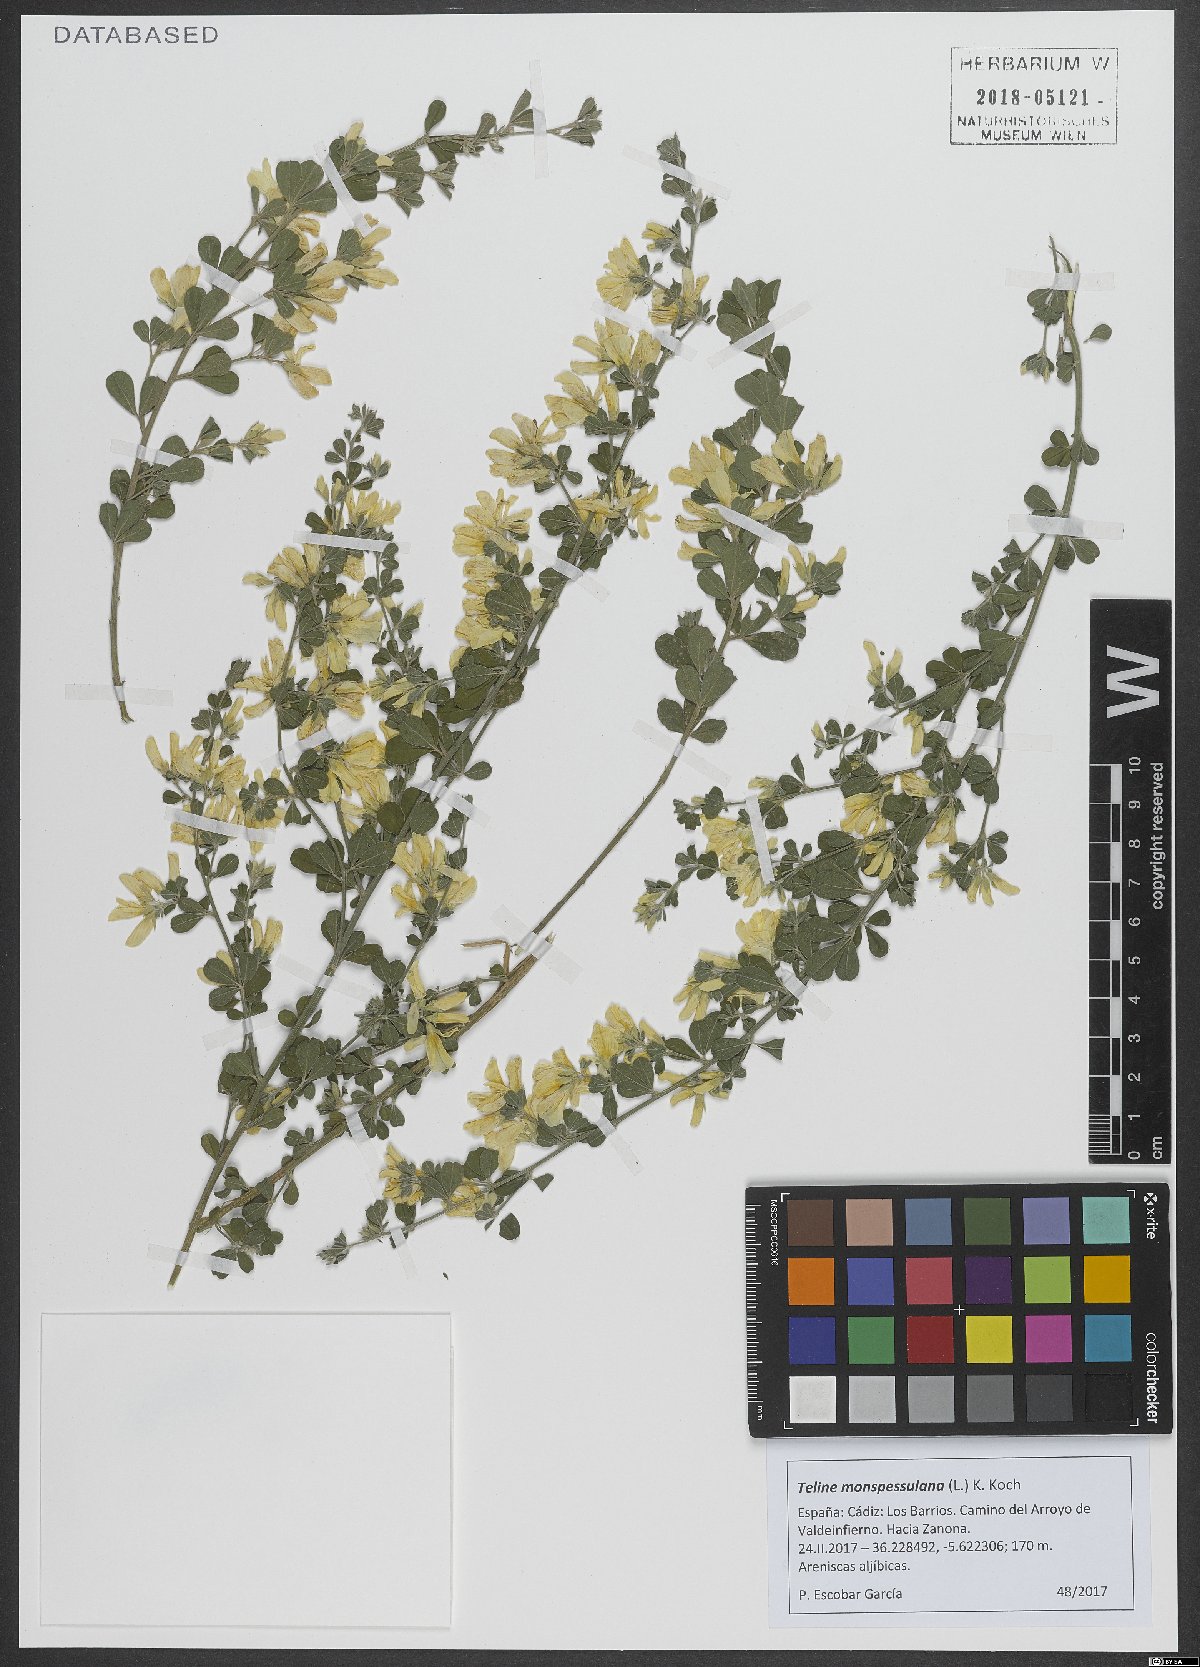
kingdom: Plantae
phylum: Tracheophyta
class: Magnoliopsida
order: Fabales
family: Fabaceae
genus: Genista
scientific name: Genista monspessulana
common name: Montpellier broom
